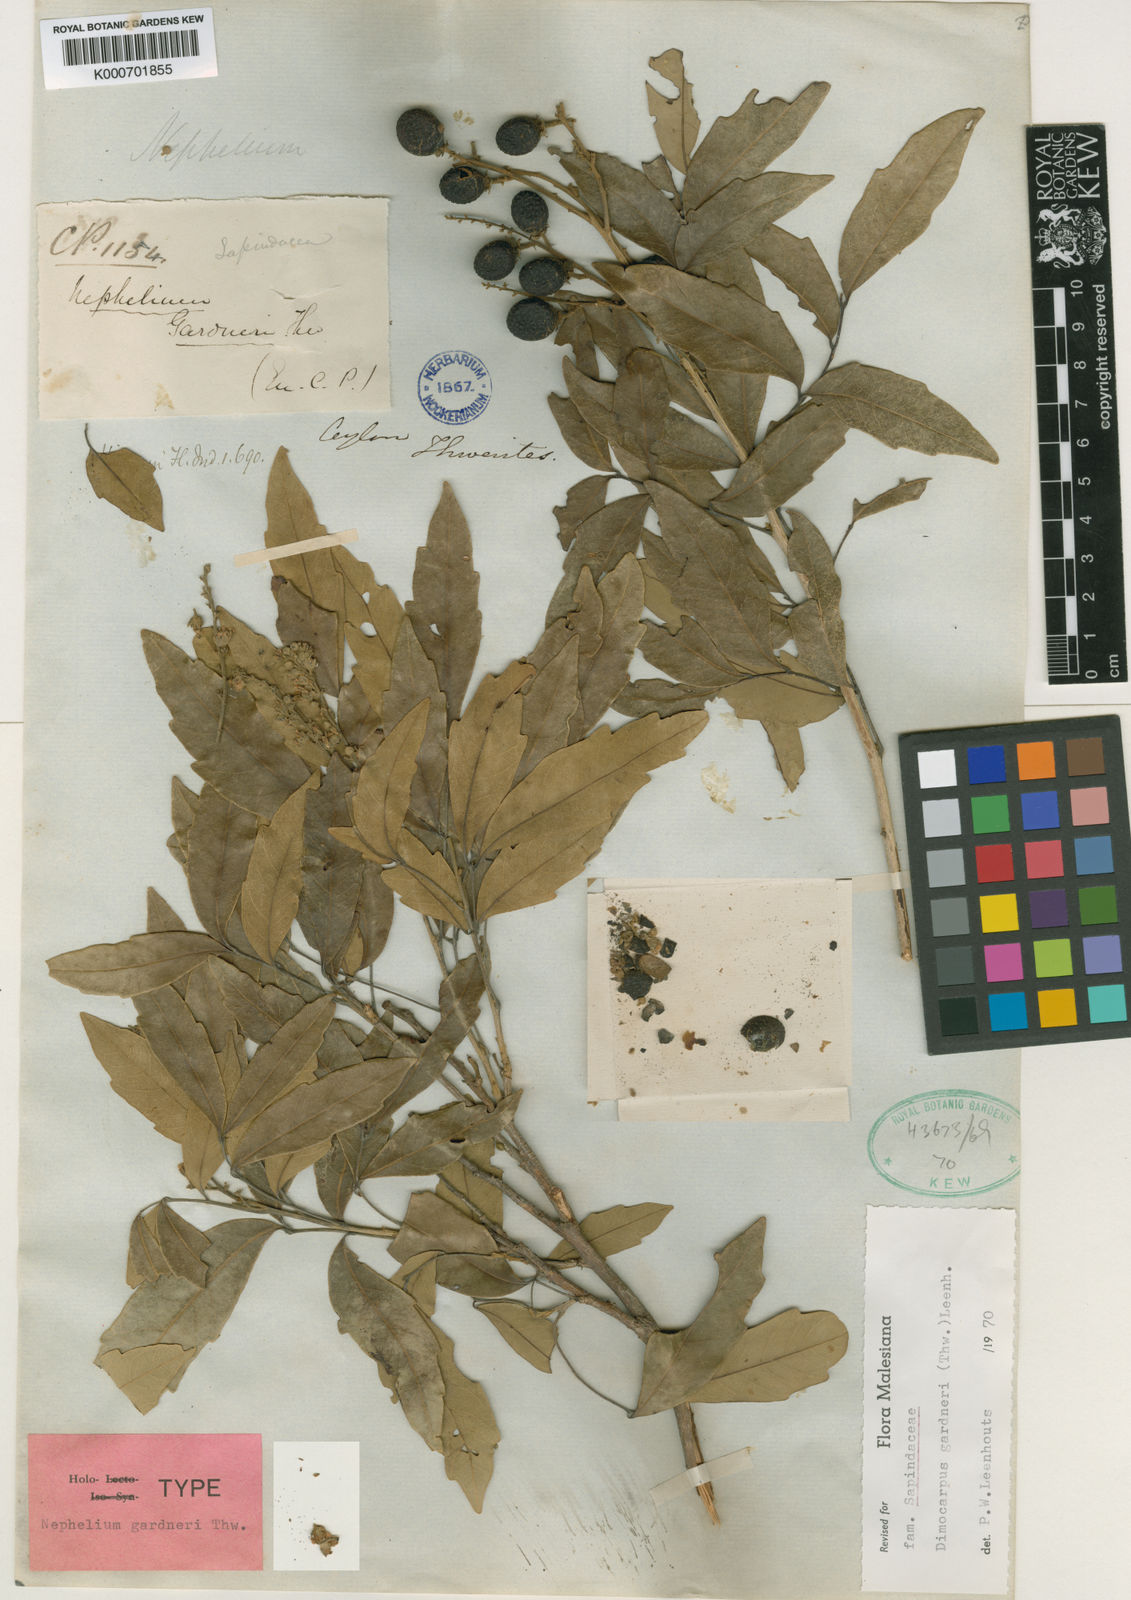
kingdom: Plantae
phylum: Tracheophyta
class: Magnoliopsida
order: Sapindales
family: Sapindaceae
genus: Dimocarpus
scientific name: Dimocarpus gardneri
